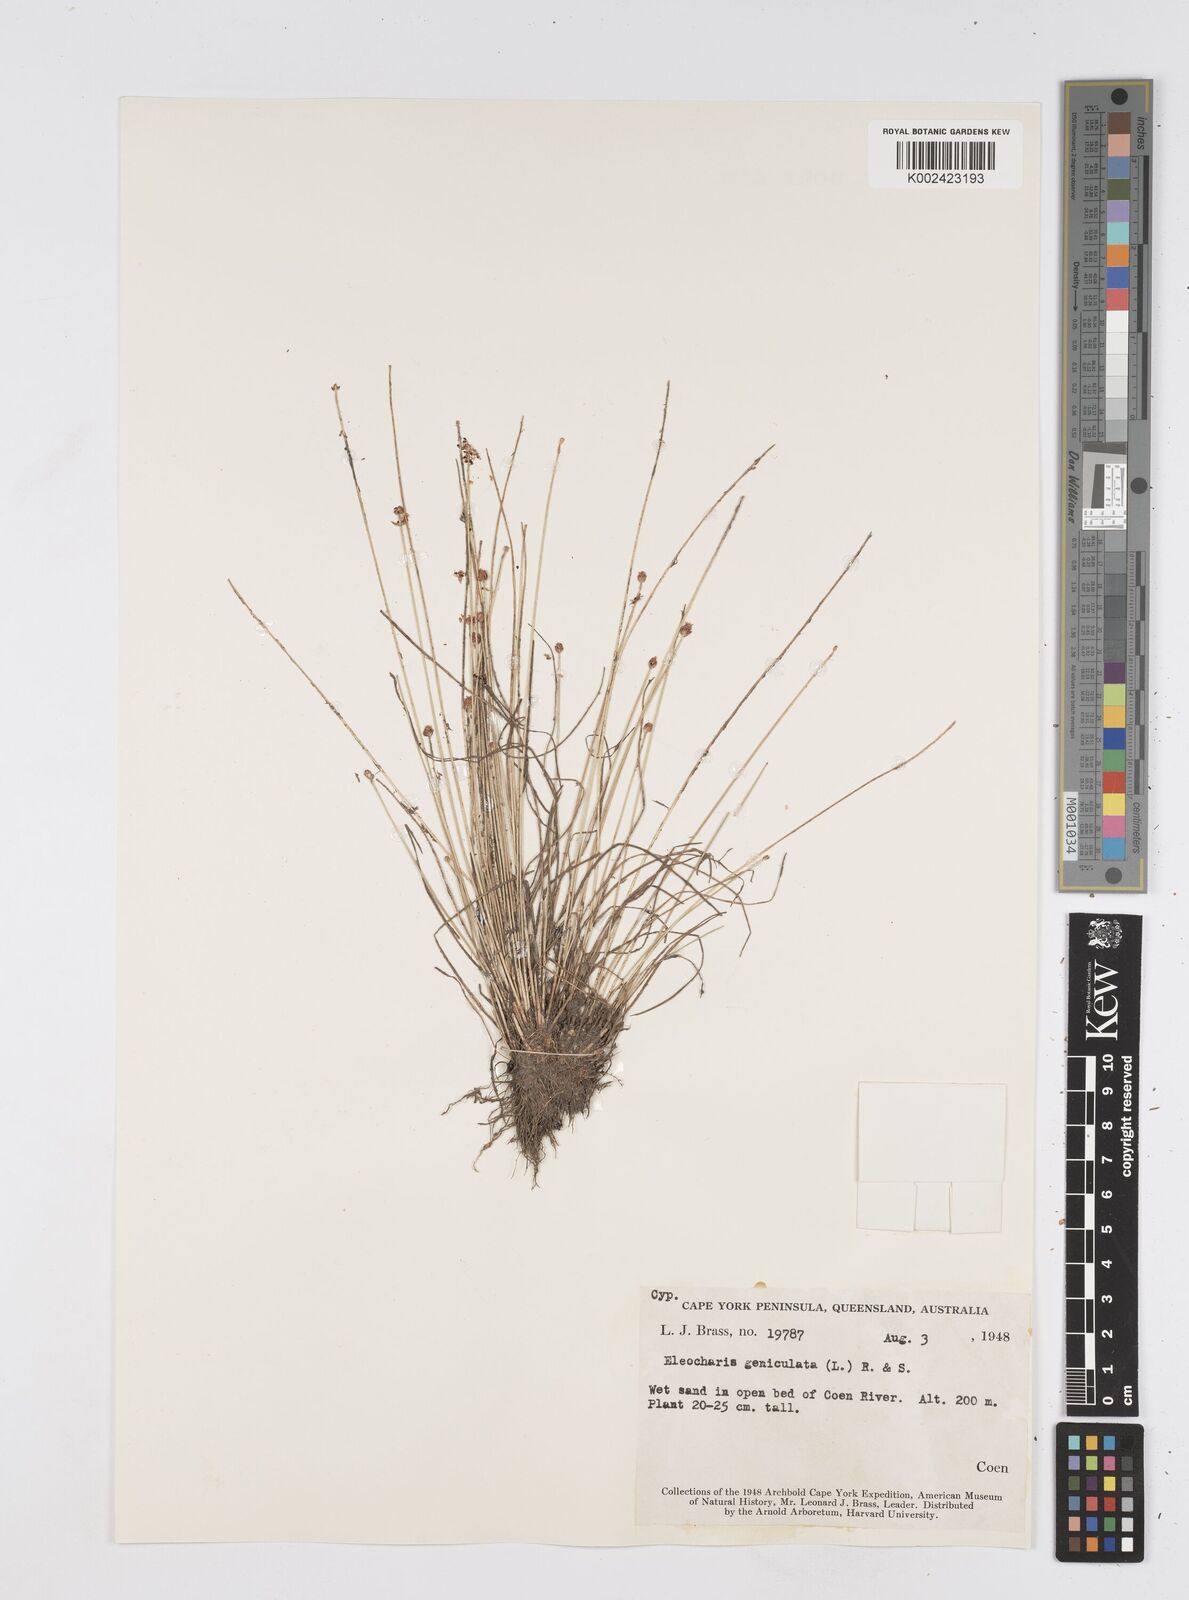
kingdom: Plantae
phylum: Tracheophyta
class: Liliopsida
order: Poales
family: Cyperaceae
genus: Eleocharis
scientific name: Eleocharis geniculata
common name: Canada spikesedge
